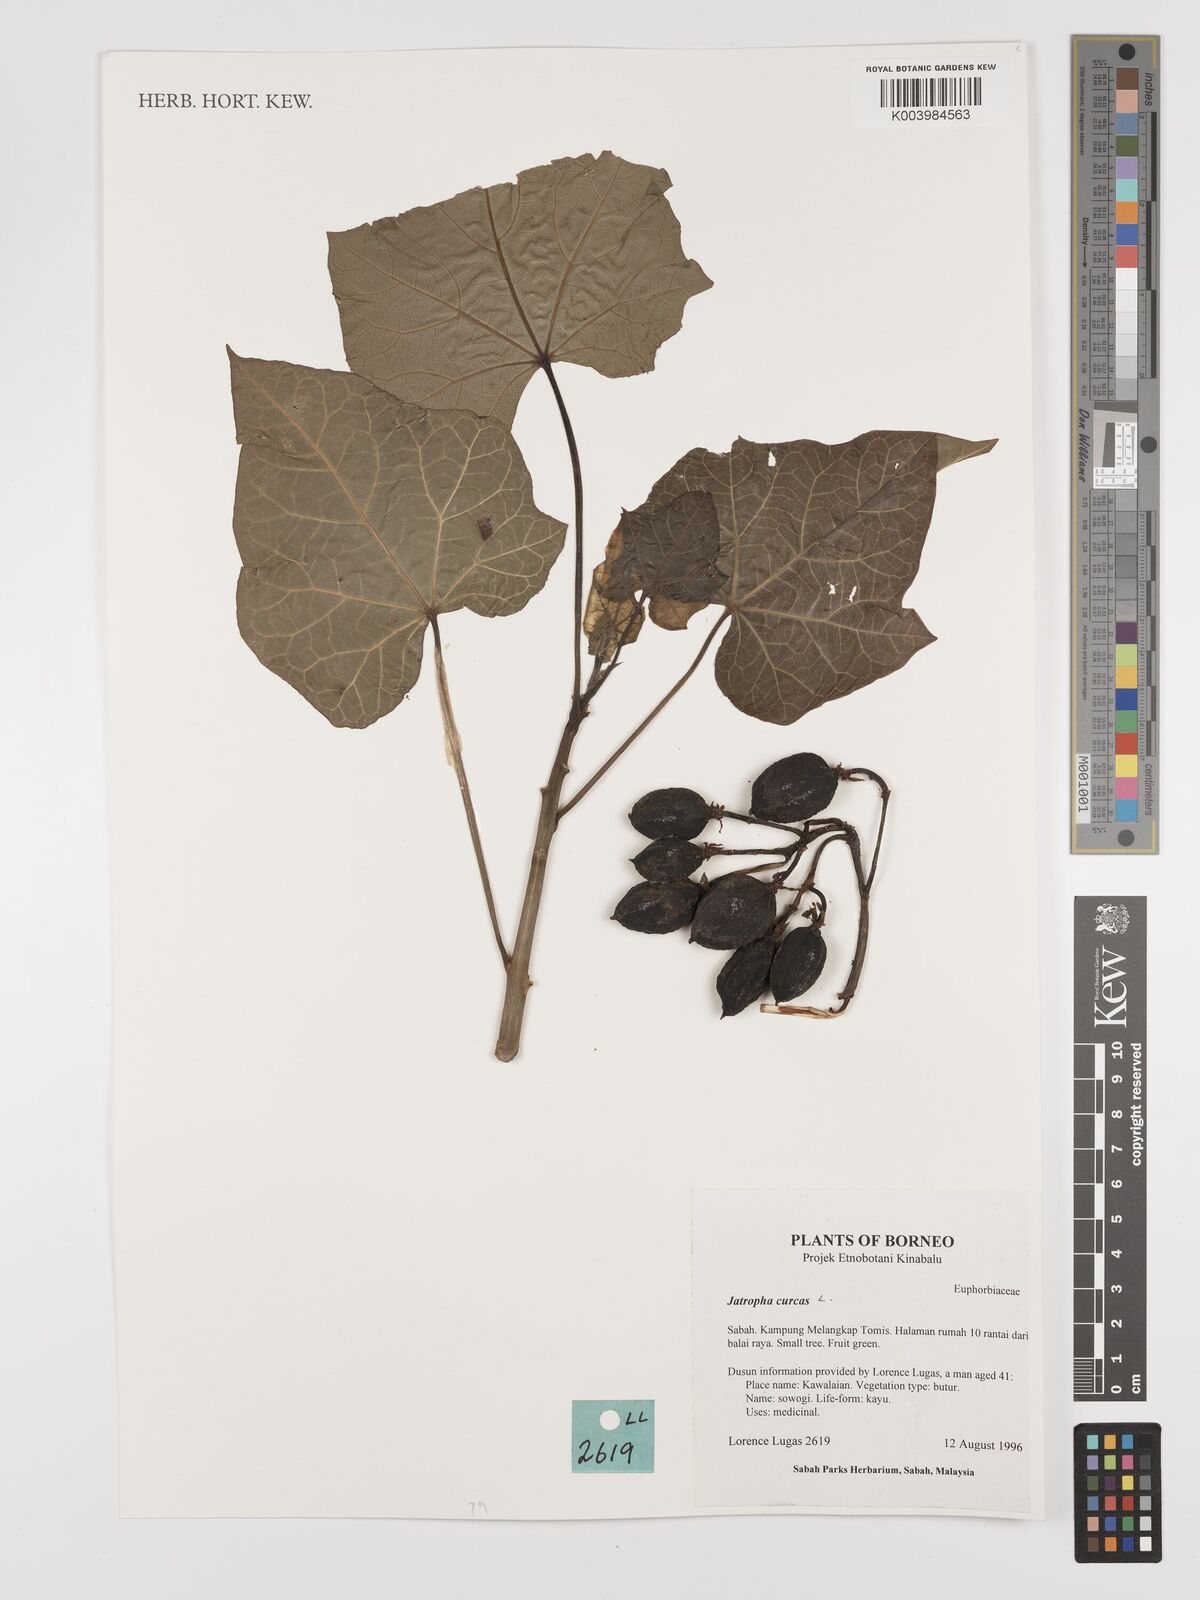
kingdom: Plantae
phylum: Tracheophyta
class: Magnoliopsida
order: Malpighiales
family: Euphorbiaceae
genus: Jatropha
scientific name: Jatropha curcas
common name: Barbados nut
